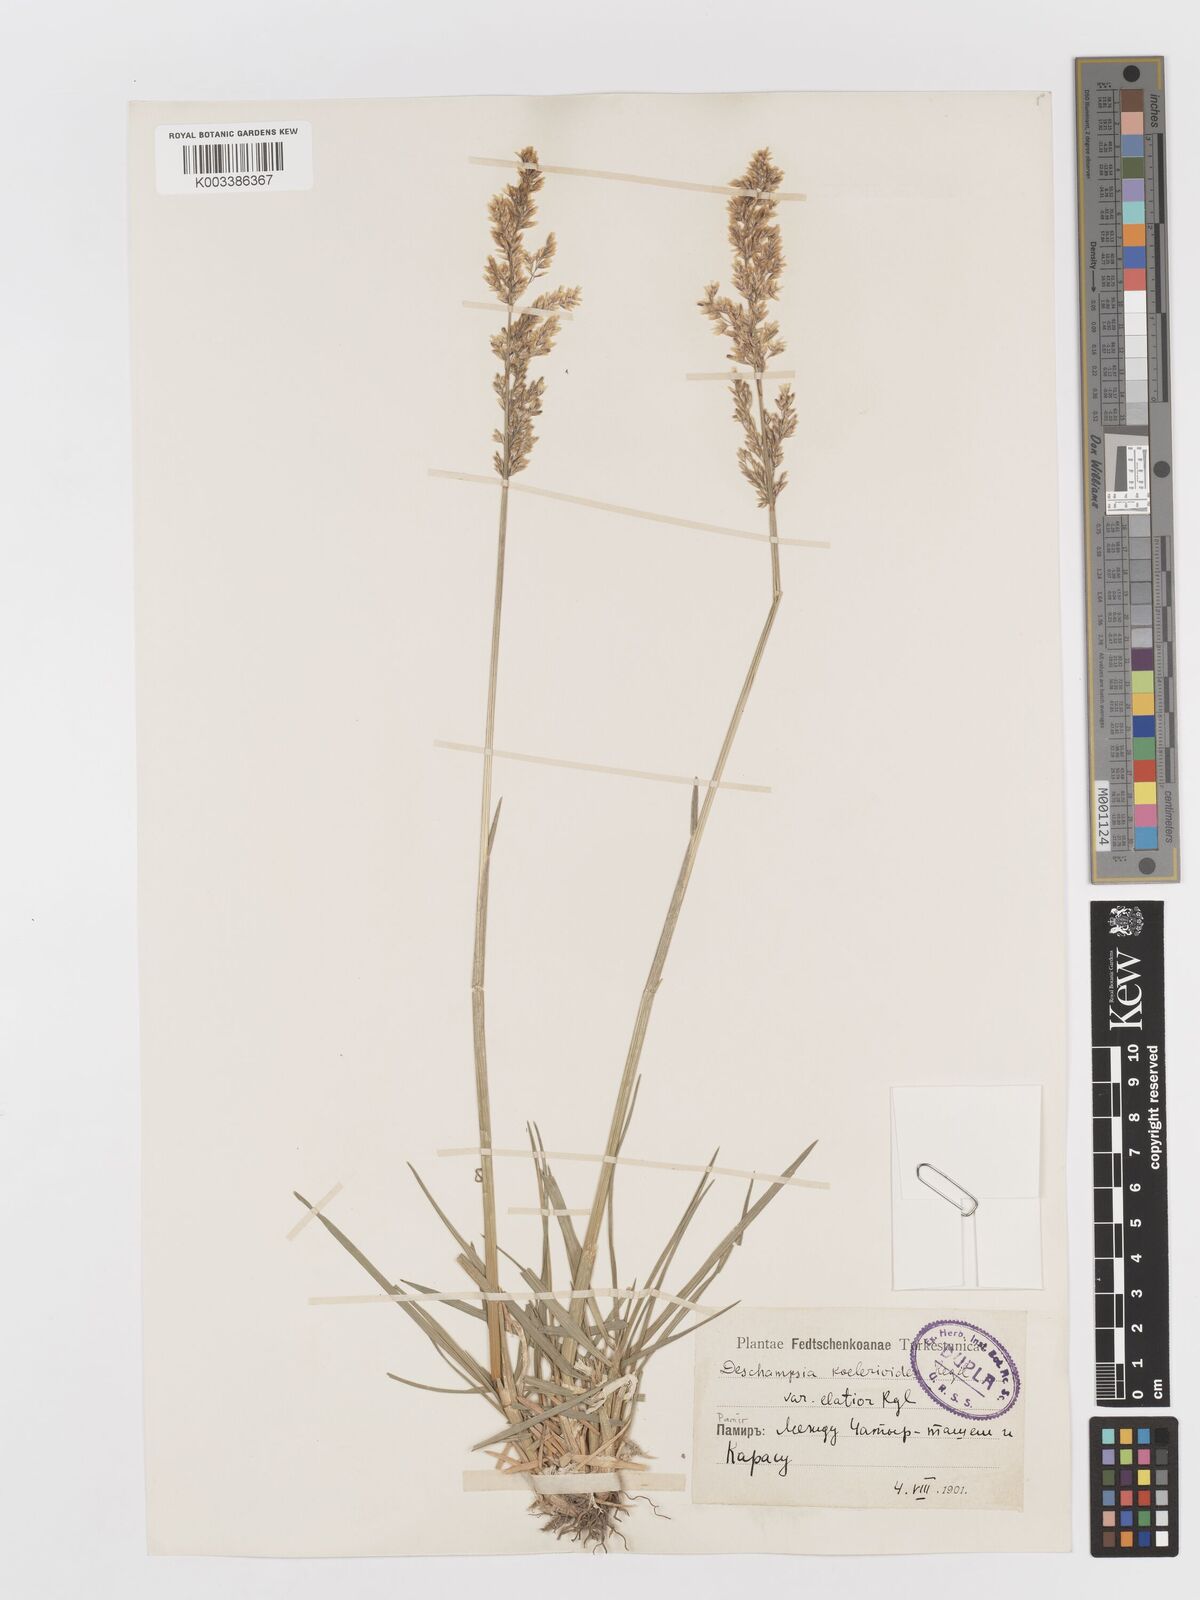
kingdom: Plantae
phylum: Tracheophyta
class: Liliopsida
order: Poales
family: Poaceae
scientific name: Poaceae
